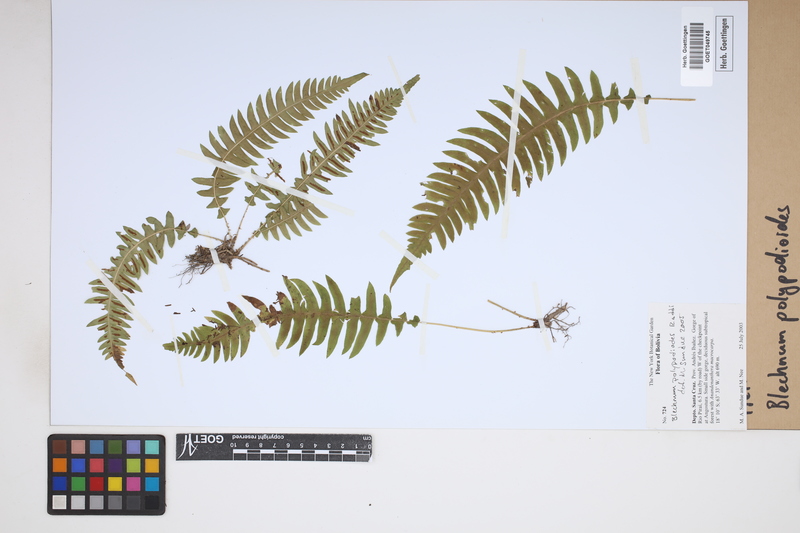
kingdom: Plantae
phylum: Tracheophyta
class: Polypodiopsida
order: Polypodiales
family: Blechnaceae
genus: Blechnum
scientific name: Blechnum polypodioides
